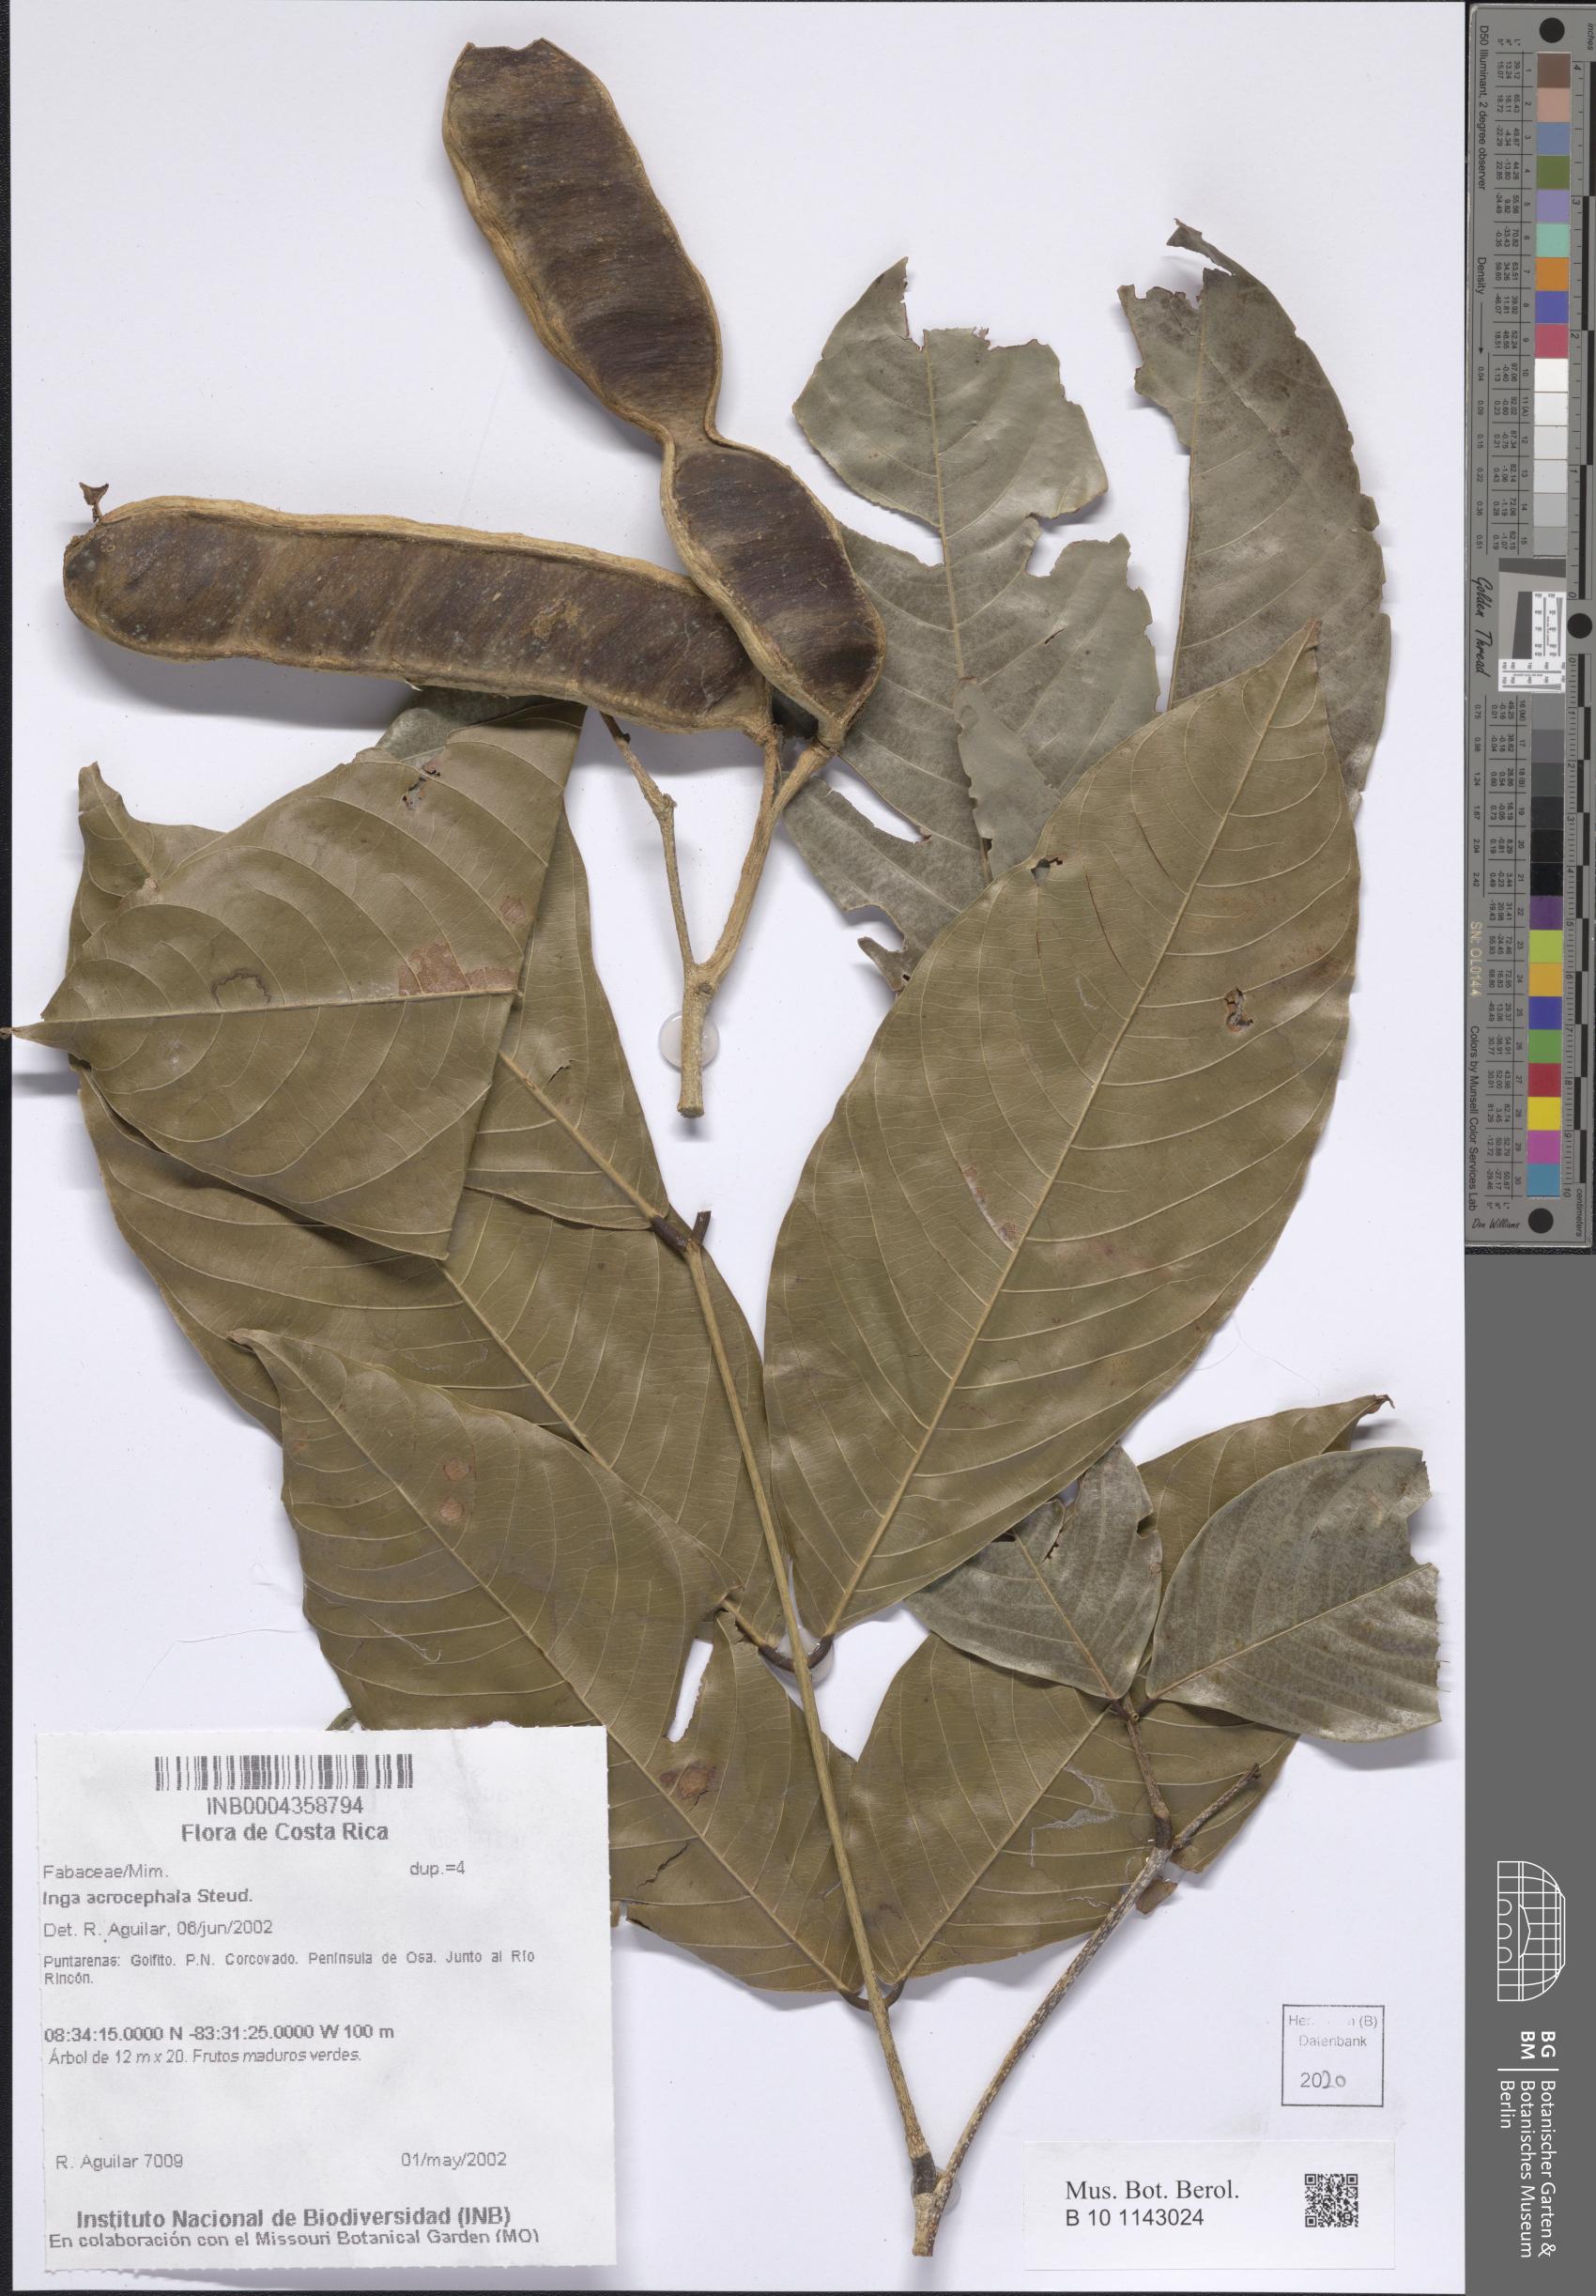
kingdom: Plantae
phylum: Tracheophyta
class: Magnoliopsida
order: Fabales
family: Fabaceae
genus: Inga
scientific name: Inga acrocephala
